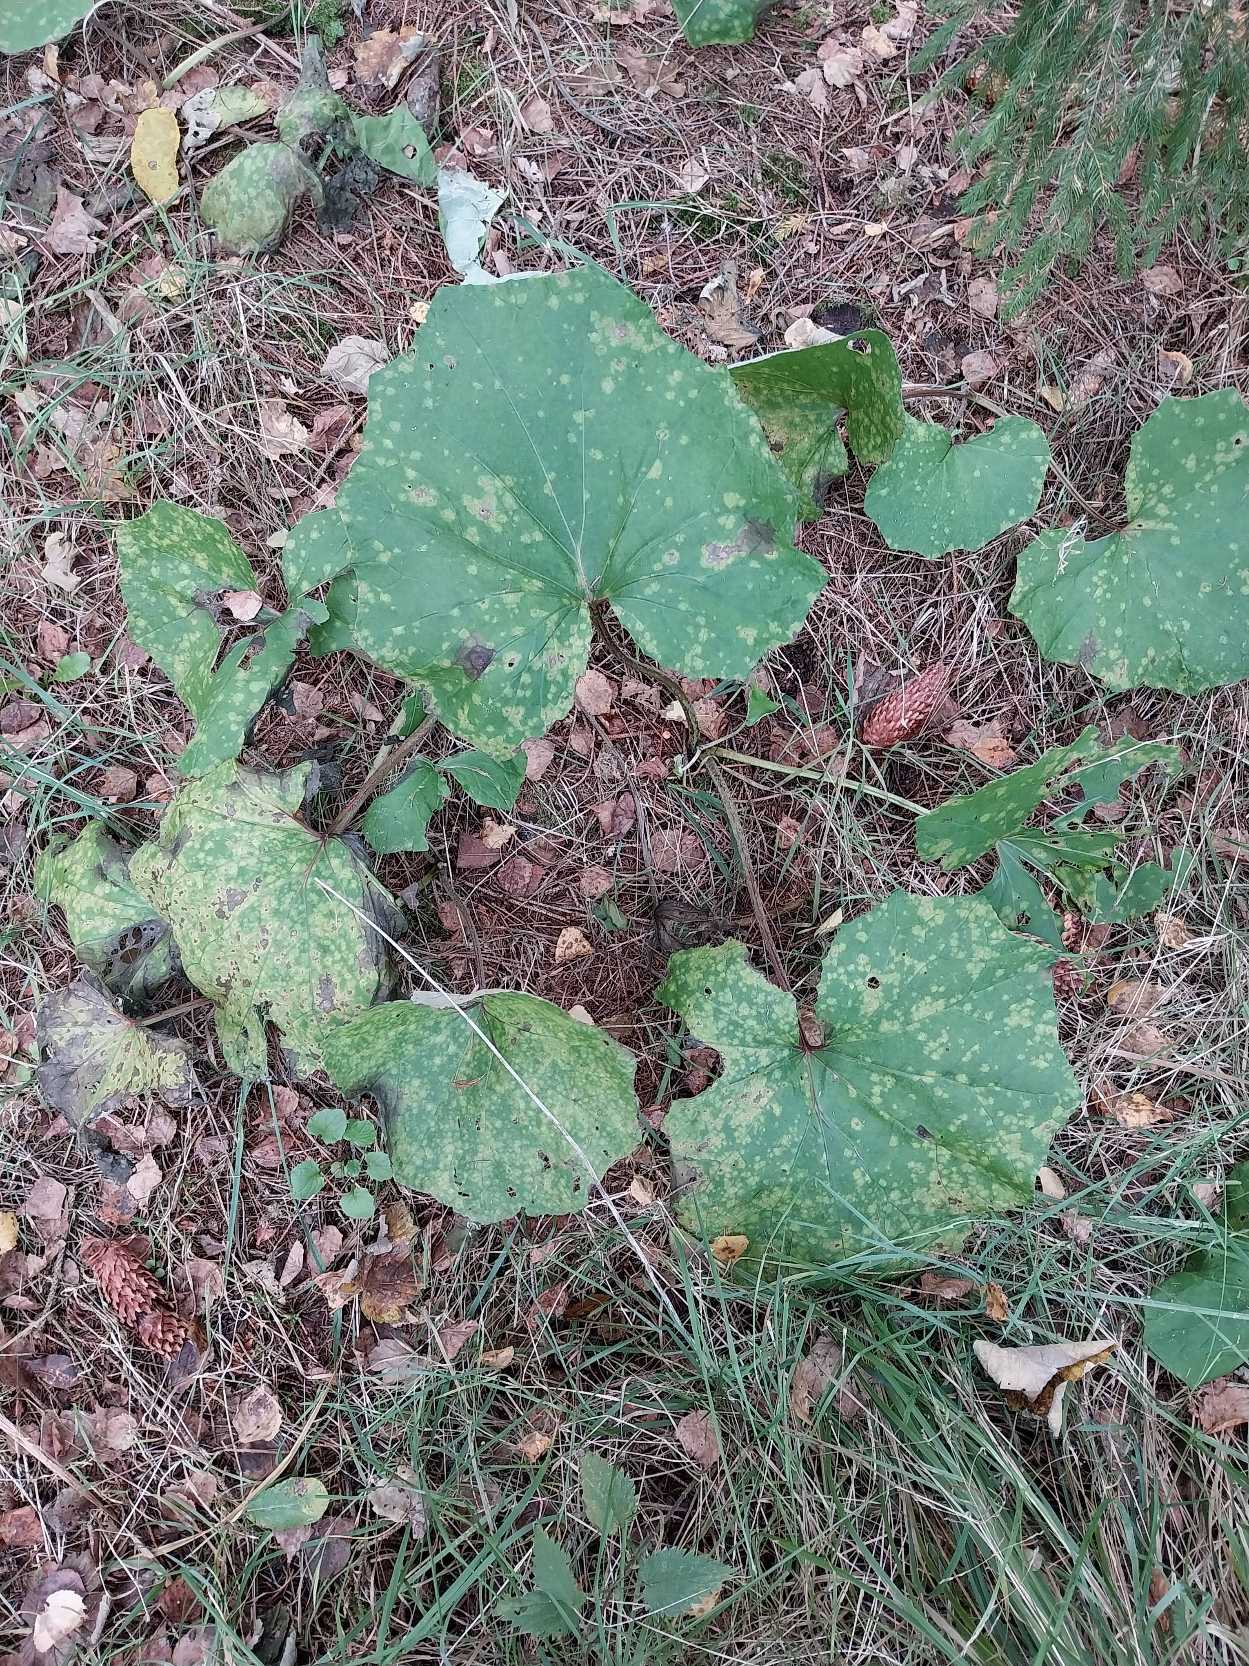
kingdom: Plantae
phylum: Tracheophyta
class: Magnoliopsida
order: Asterales
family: Asteraceae
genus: Tussilago
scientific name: Tussilago farfara
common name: Følfod
